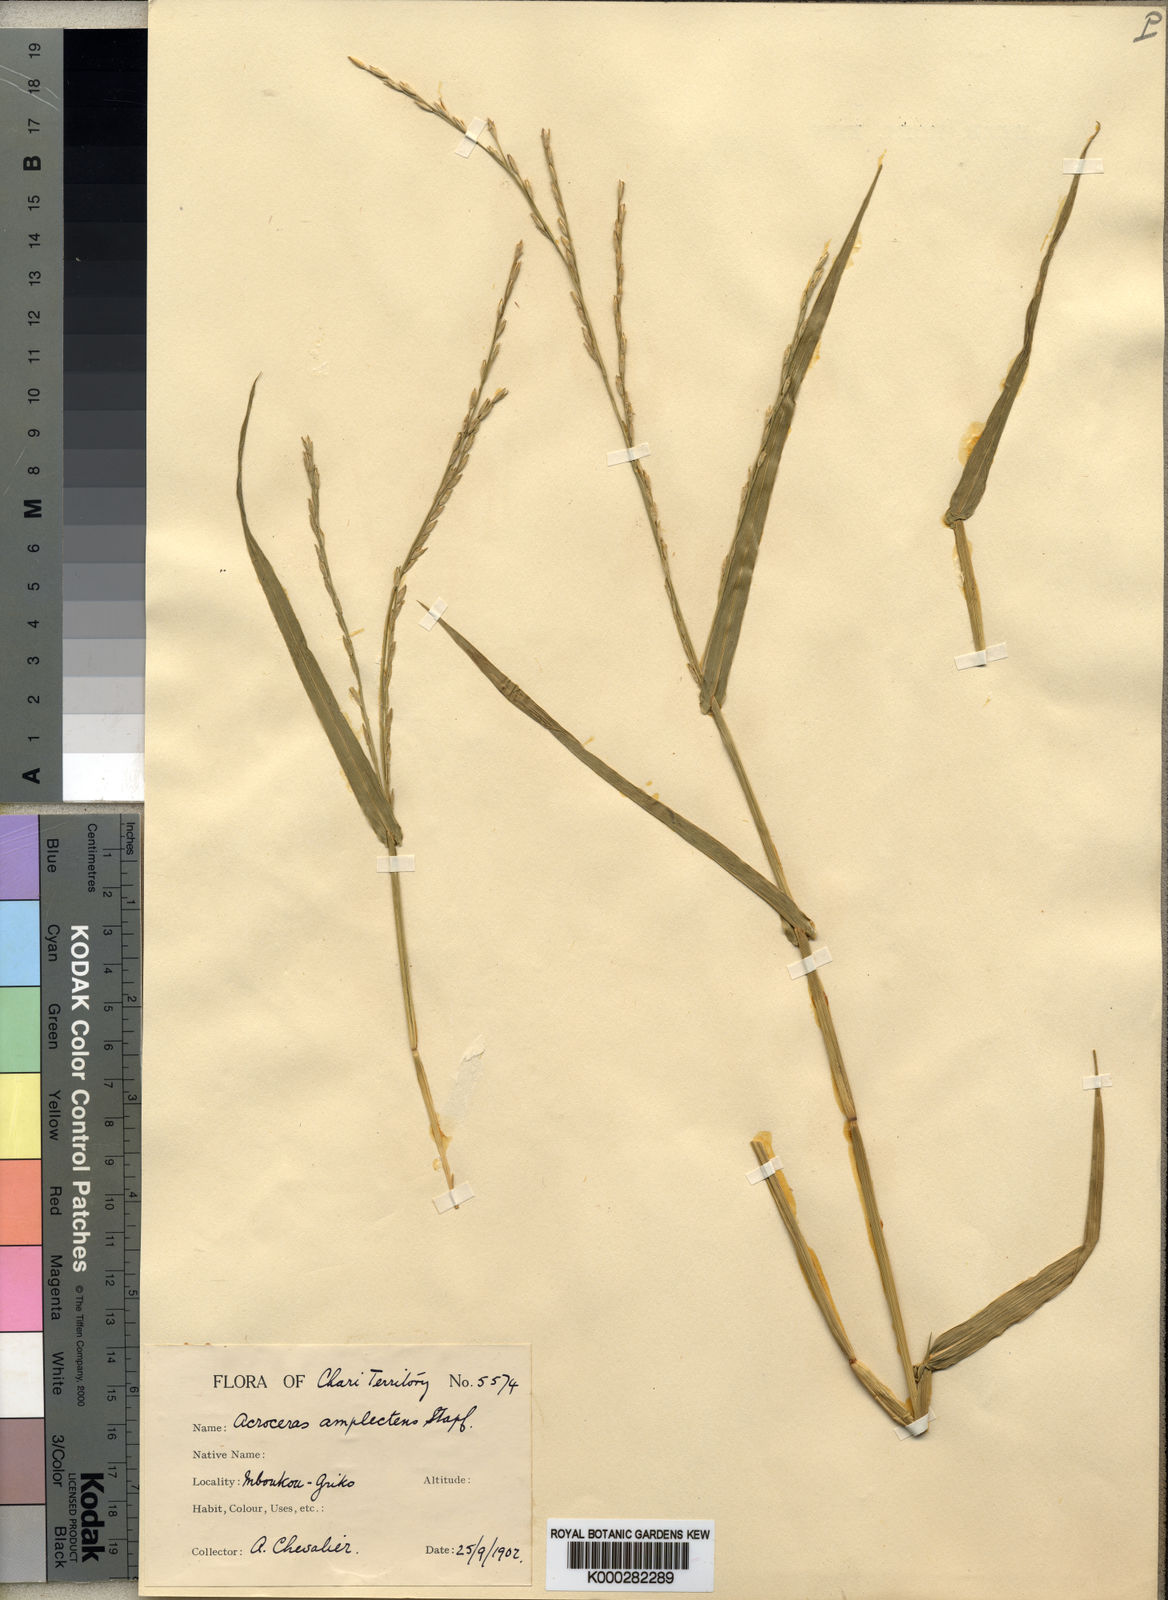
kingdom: Plantae
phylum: Tracheophyta
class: Liliopsida
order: Poales
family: Poaceae
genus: Acroceras
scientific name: Acroceras amplectens
